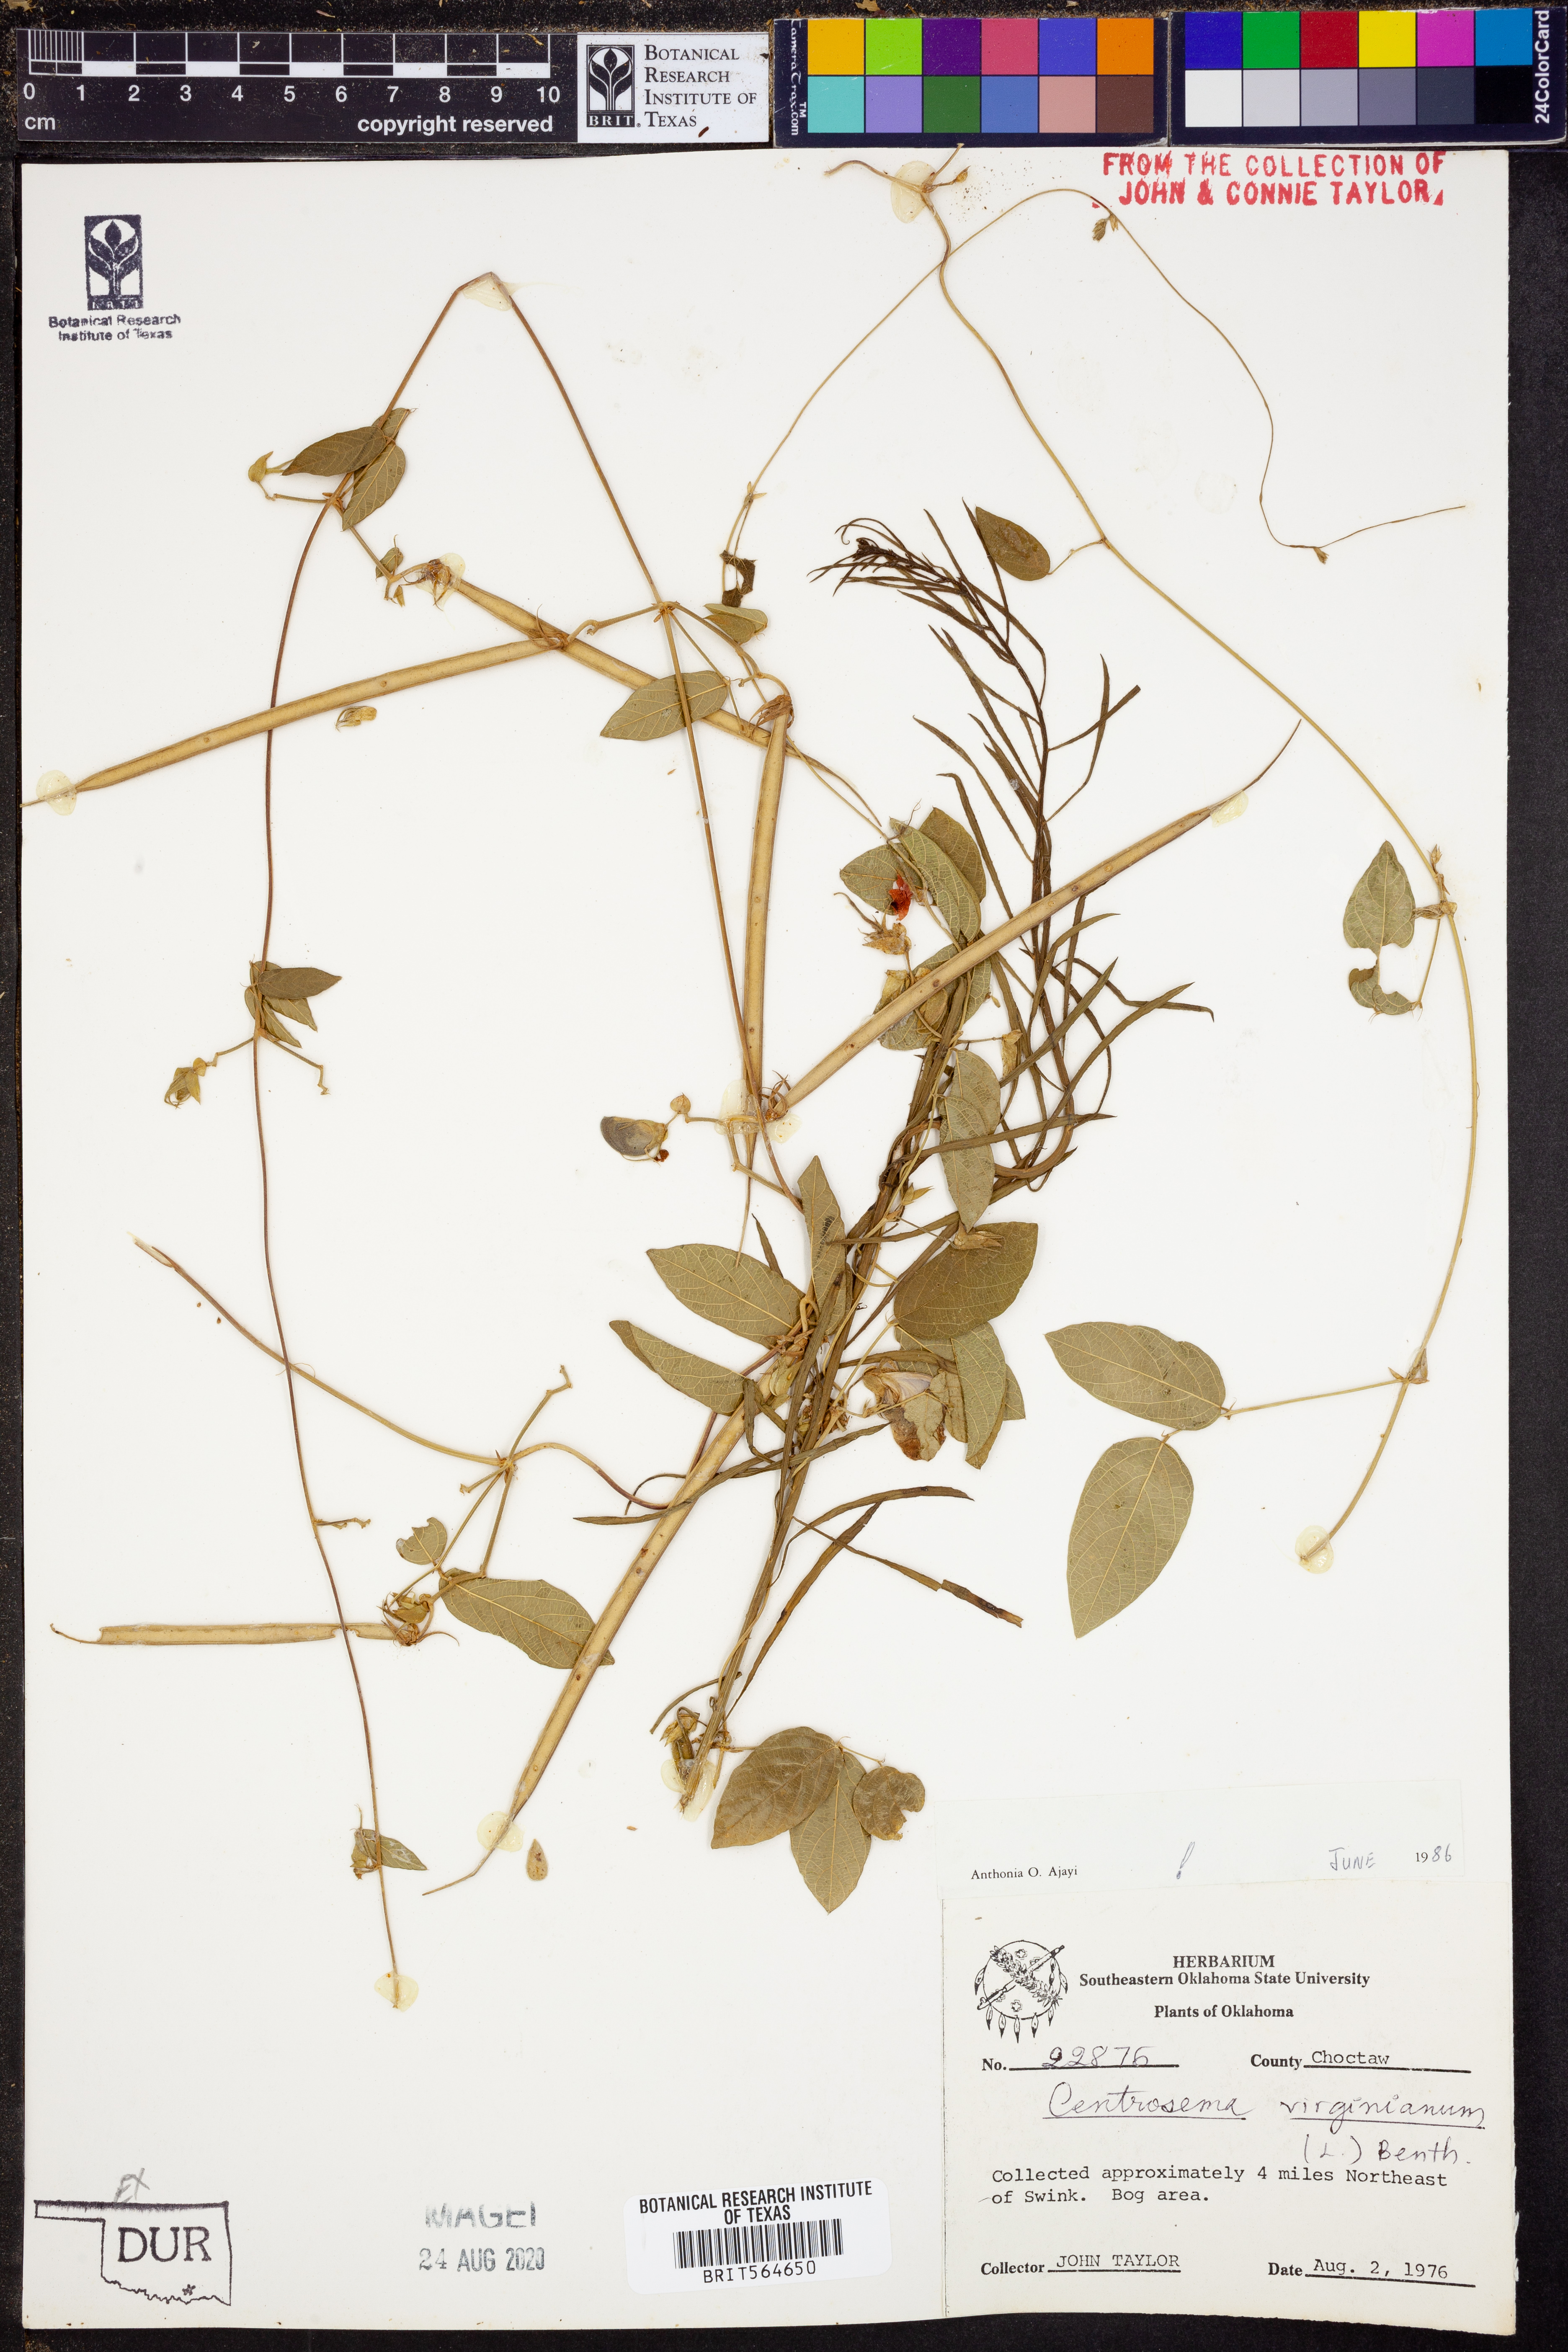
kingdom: Plantae
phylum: Tracheophyta
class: Magnoliopsida
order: Fabales
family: Fabaceae
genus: Centrosema
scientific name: Centrosema virginianum
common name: Butterfly-pea
